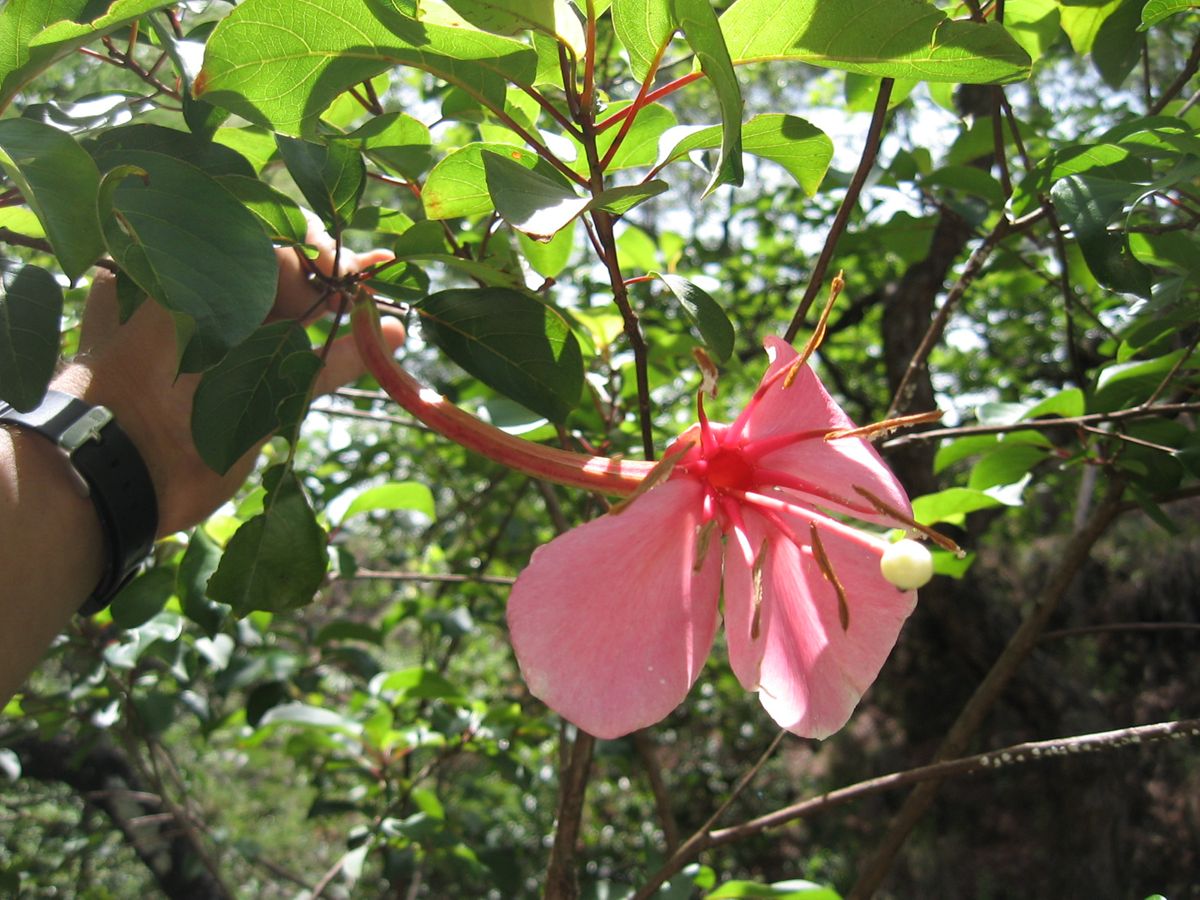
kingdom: Plantae
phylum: Tracheophyta
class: Magnoliopsida
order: Myrtales
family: Onagraceae
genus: Hauya
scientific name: Hauya elegans
